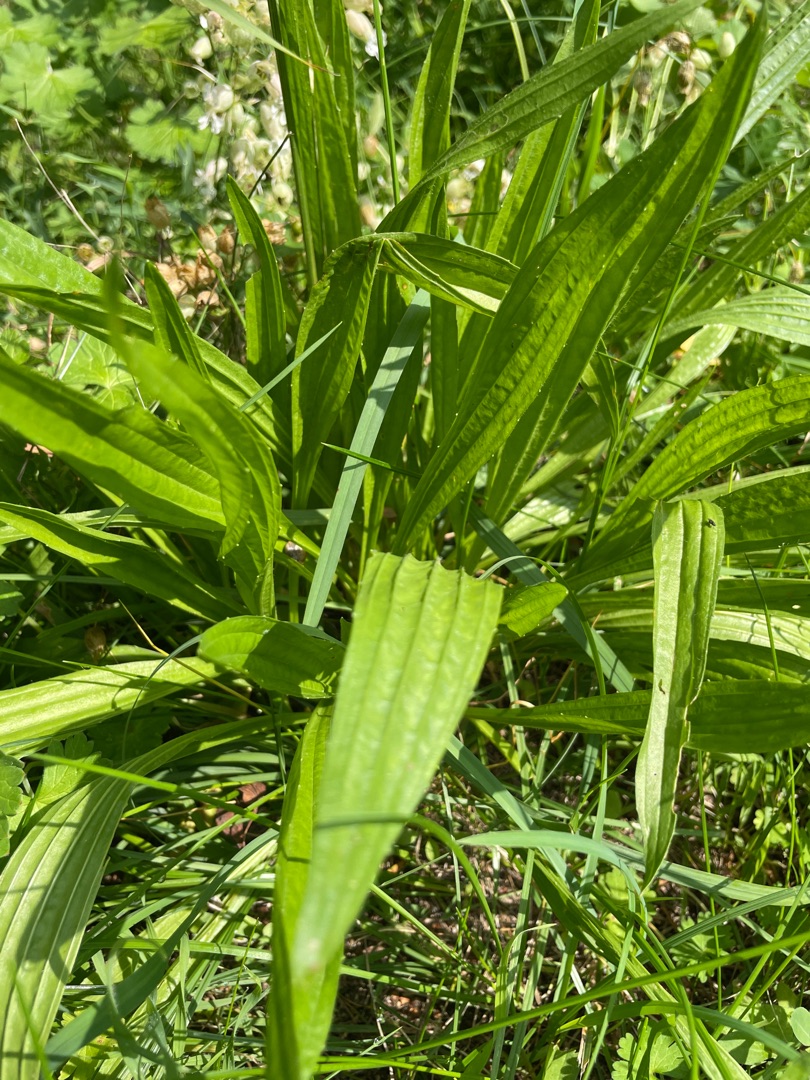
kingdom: Plantae
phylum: Tracheophyta
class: Magnoliopsida
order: Lamiales
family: Plantaginaceae
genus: Plantago
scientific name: Plantago lanceolata
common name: Lancet-vejbred
